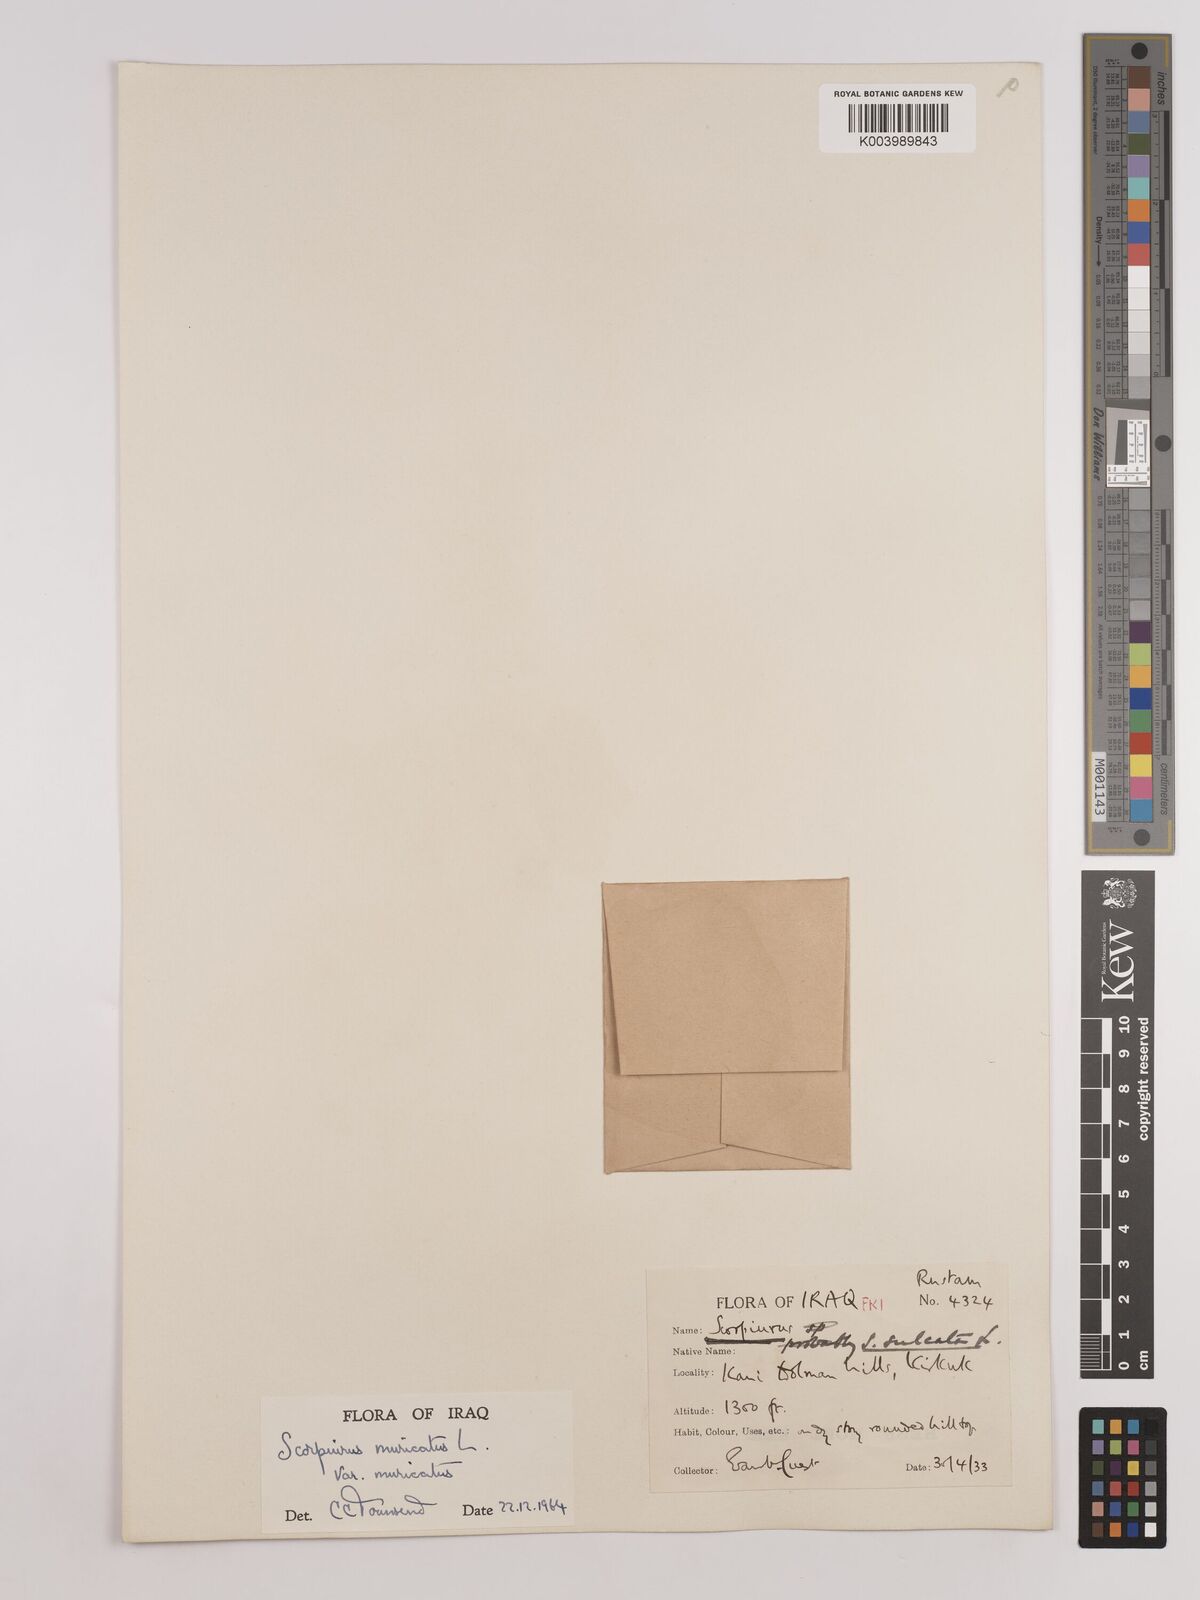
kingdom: Plantae
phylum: Tracheophyta
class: Magnoliopsida
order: Fabales
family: Fabaceae
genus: Scorpiurus
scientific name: Scorpiurus muricatus
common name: Caterpillar-plant
